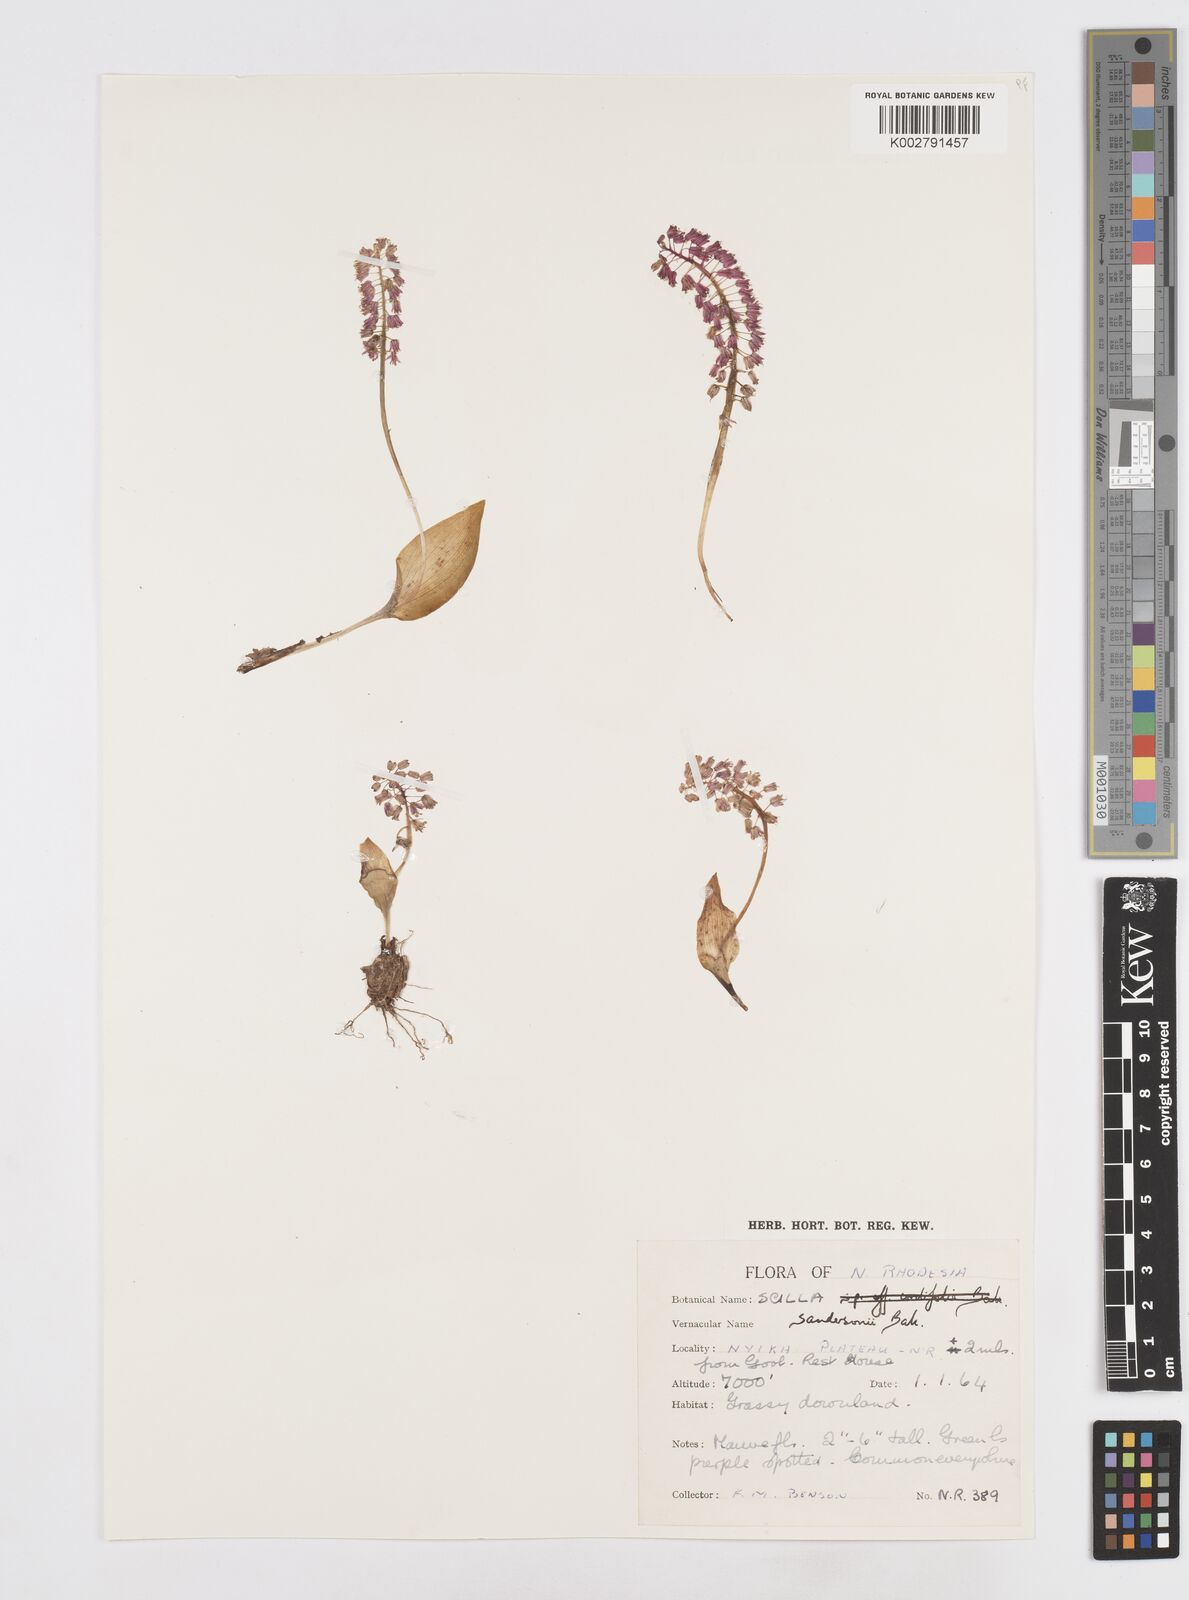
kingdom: Plantae
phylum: Tracheophyta
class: Liliopsida
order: Asparagales
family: Asparagaceae
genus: Ledebouria
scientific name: Ledebouria sandersonii
